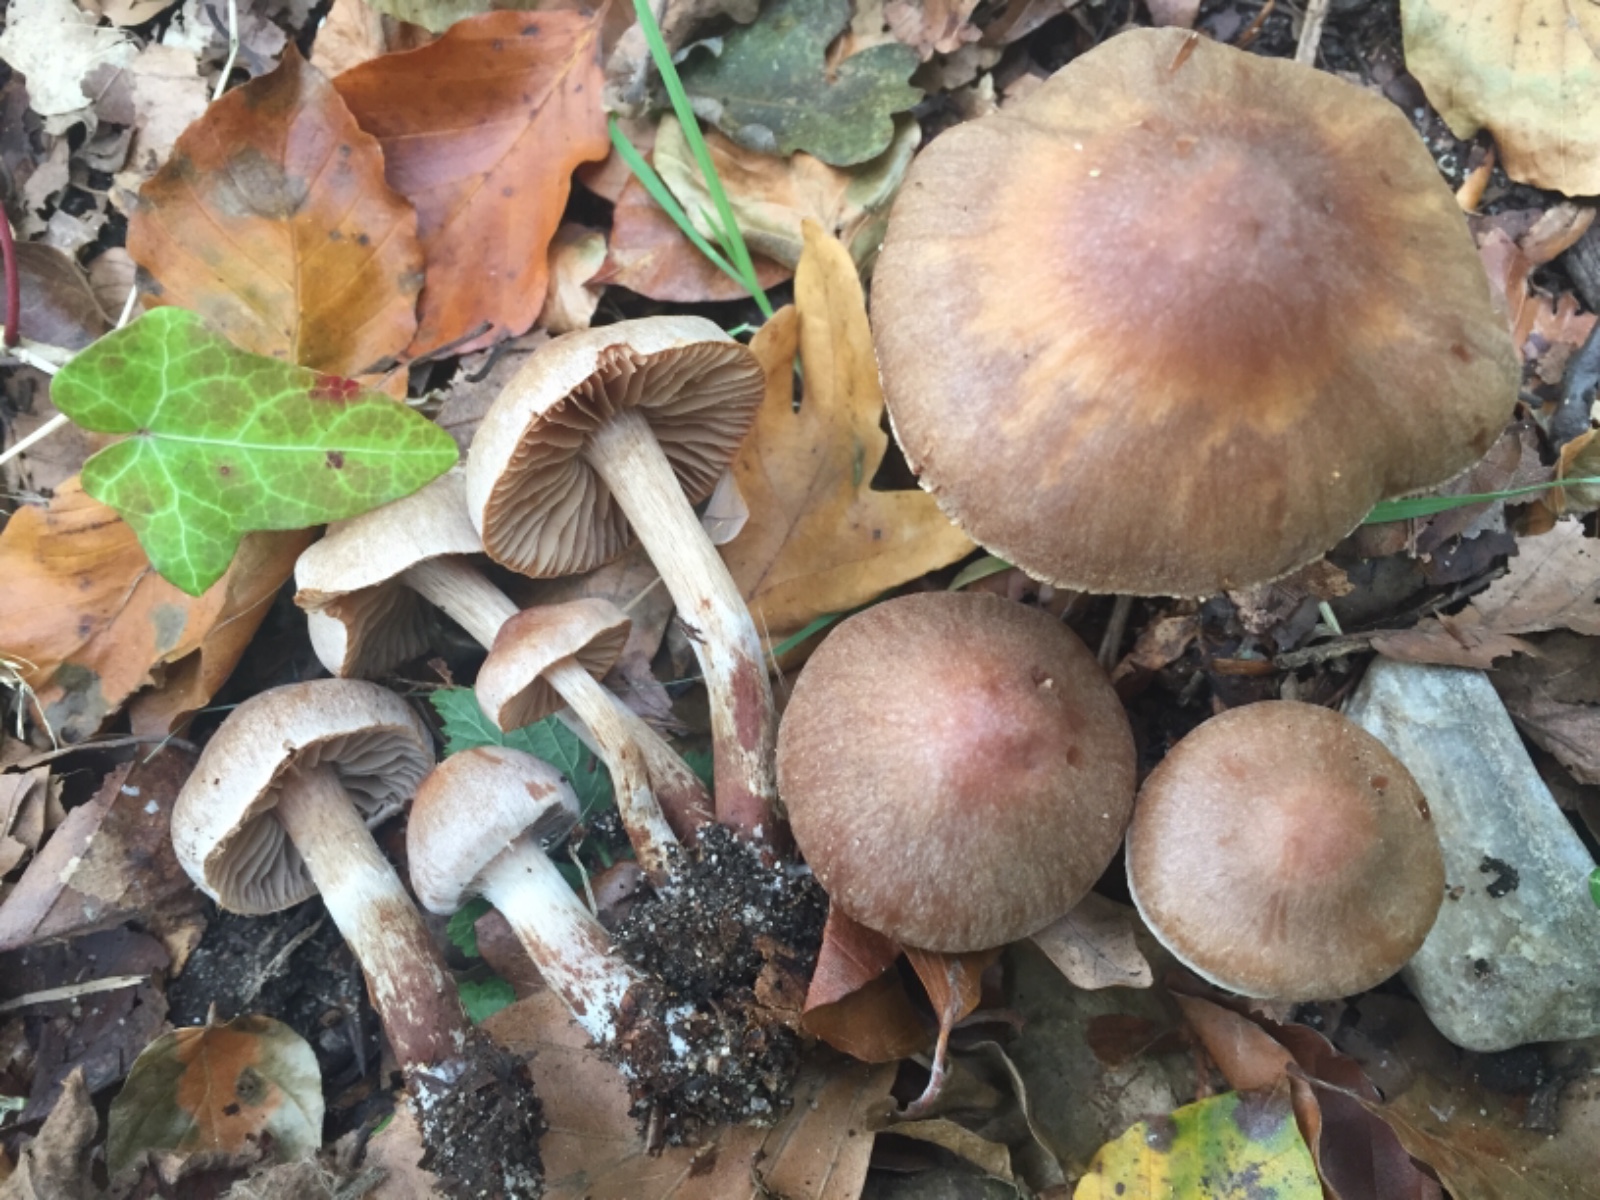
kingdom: Fungi
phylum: Basidiomycota
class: Agaricomycetes
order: Agaricales
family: Cortinariaceae
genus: Cortinarius
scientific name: Cortinarius epipurrus
